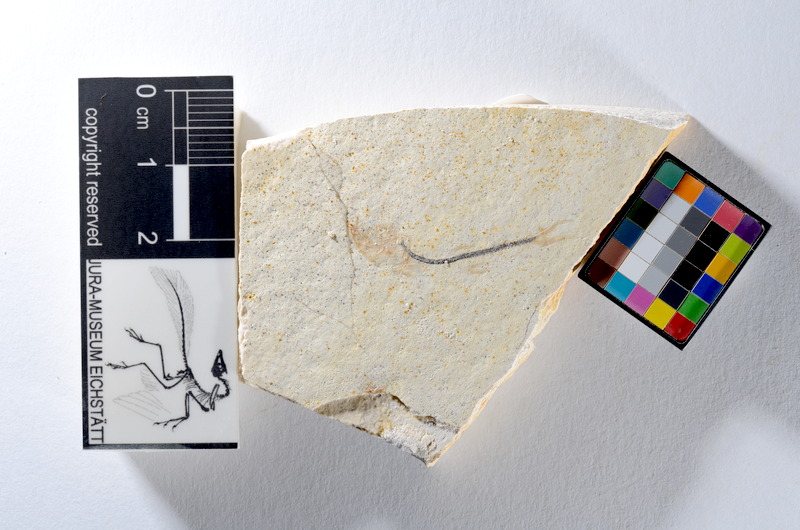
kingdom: Animalia
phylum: Chordata
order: Salmoniformes
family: Orthogonikleithridae
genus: Orthogonikleithrus
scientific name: Orthogonikleithrus hoelli
